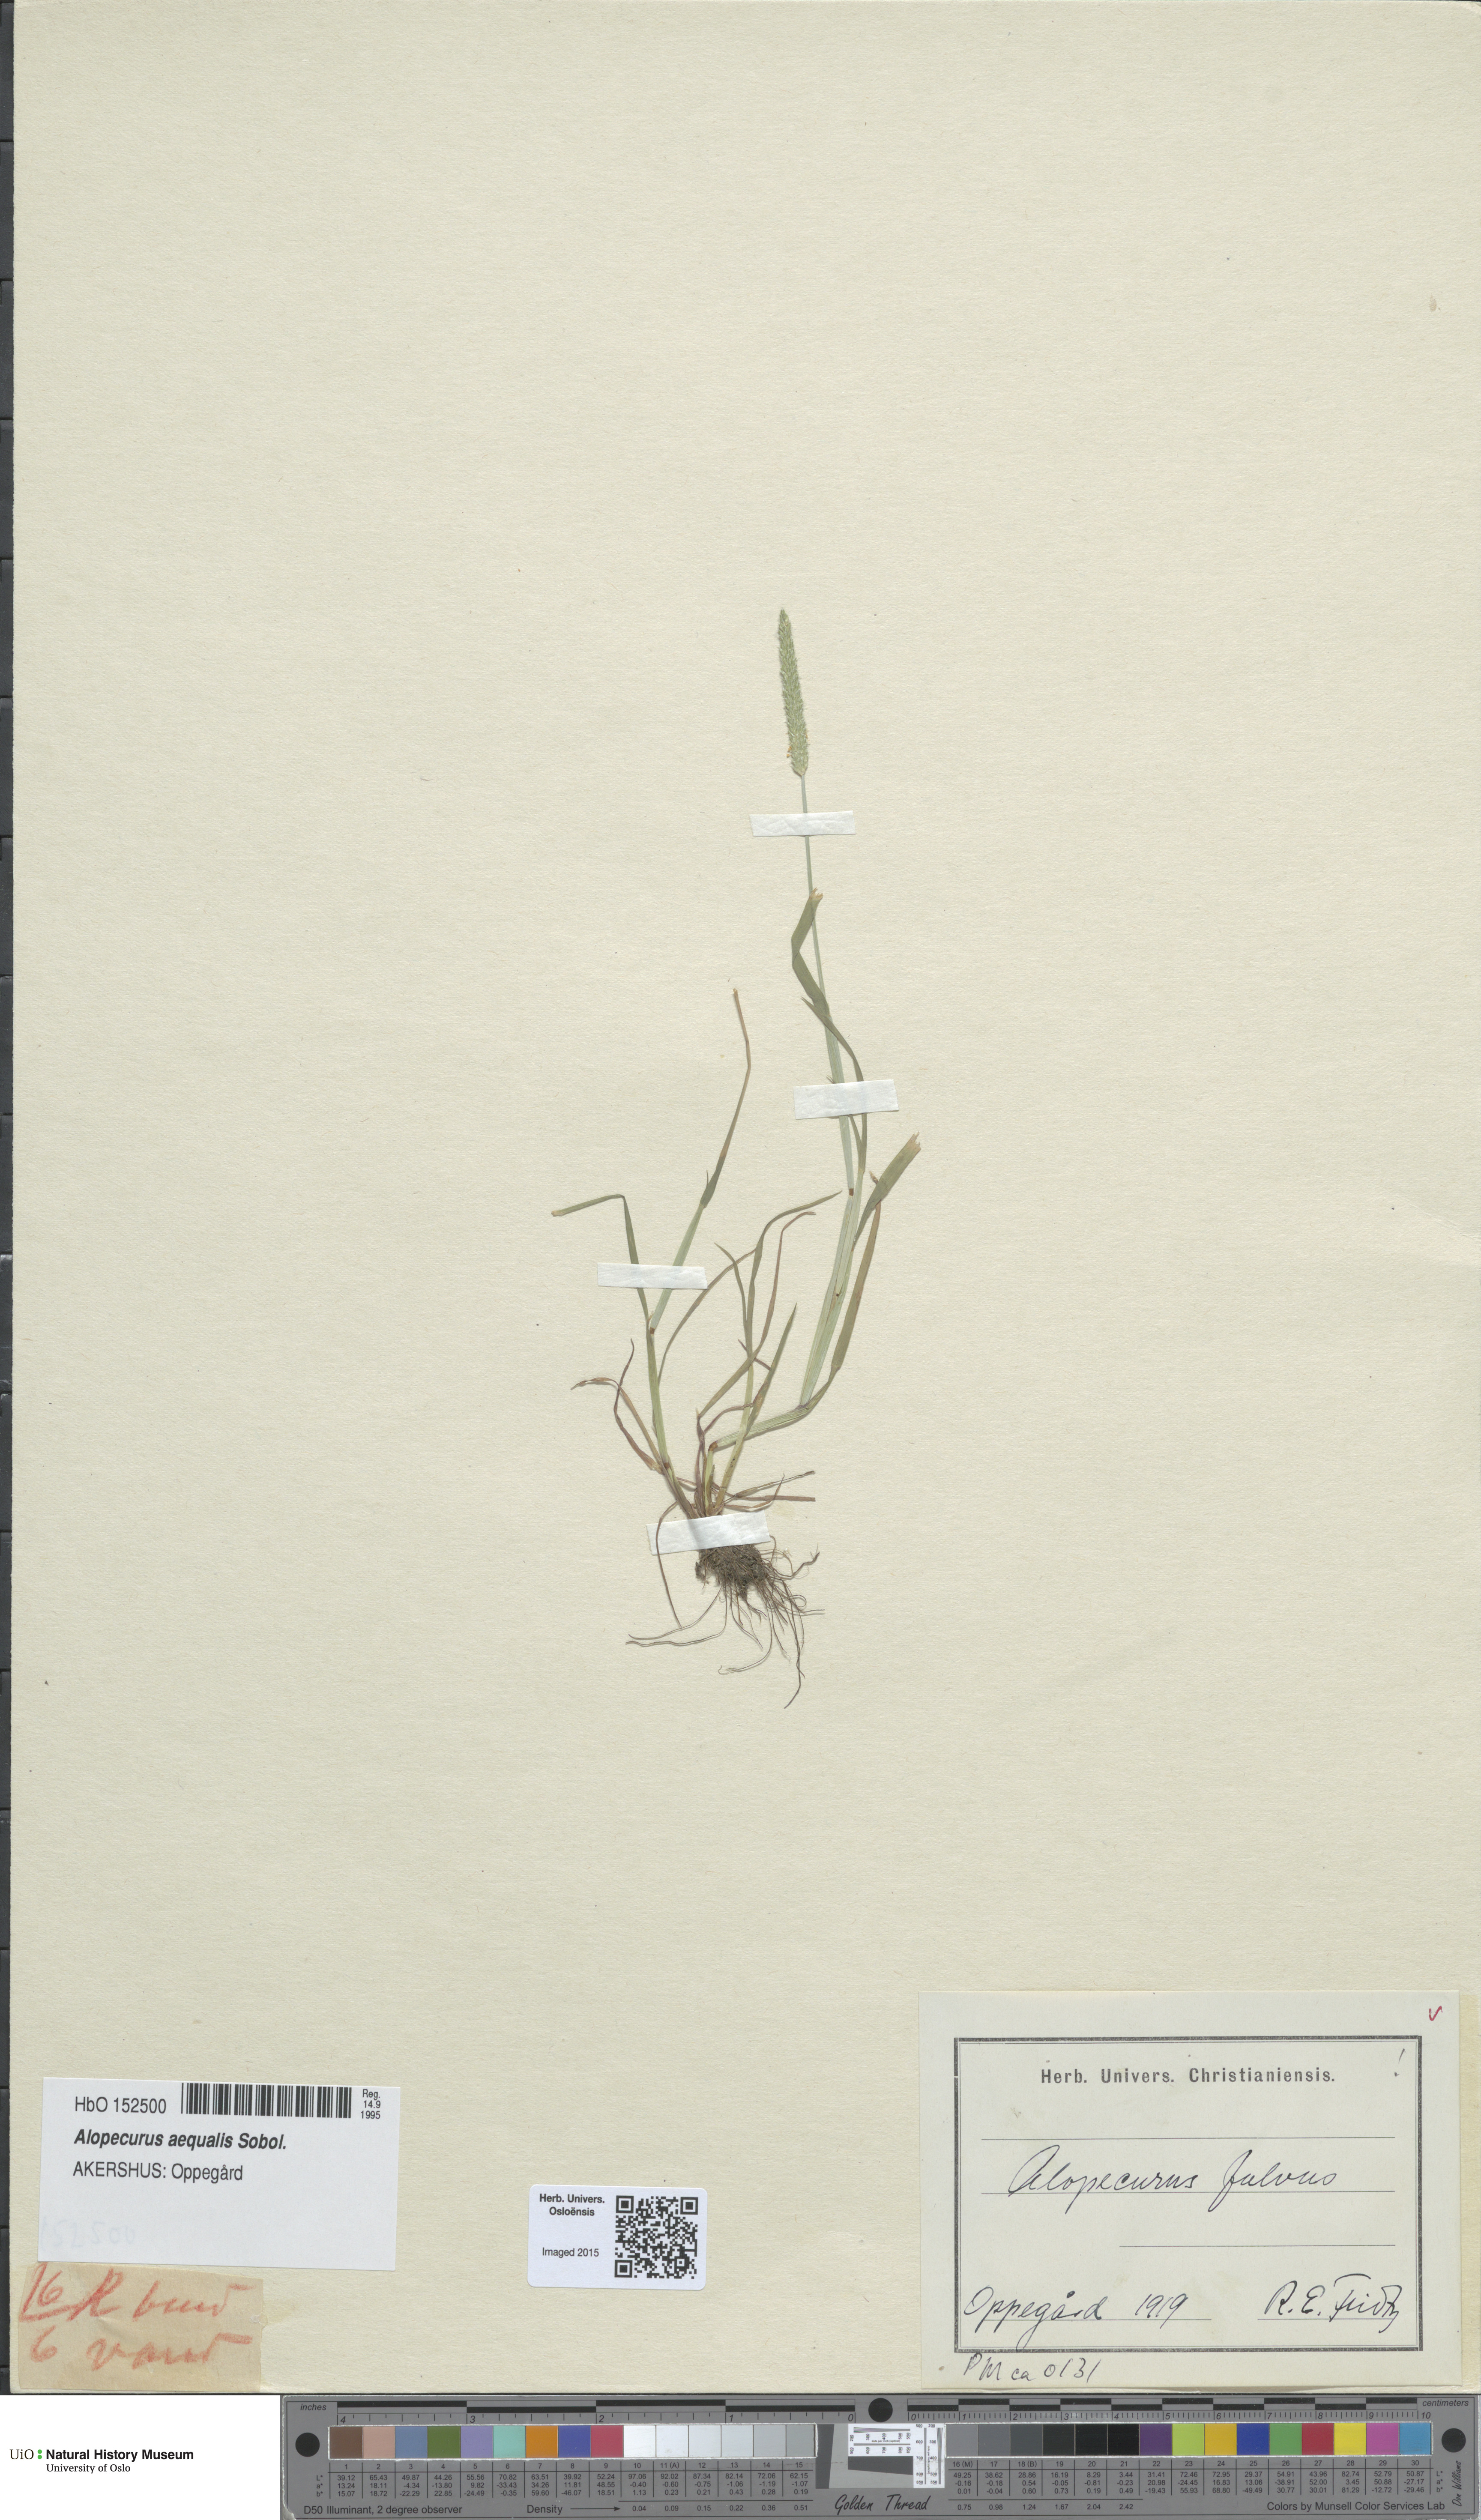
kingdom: Plantae
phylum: Tracheophyta
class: Liliopsida
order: Poales
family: Poaceae
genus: Alopecurus
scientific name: Alopecurus aequalis
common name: Orange foxtail
